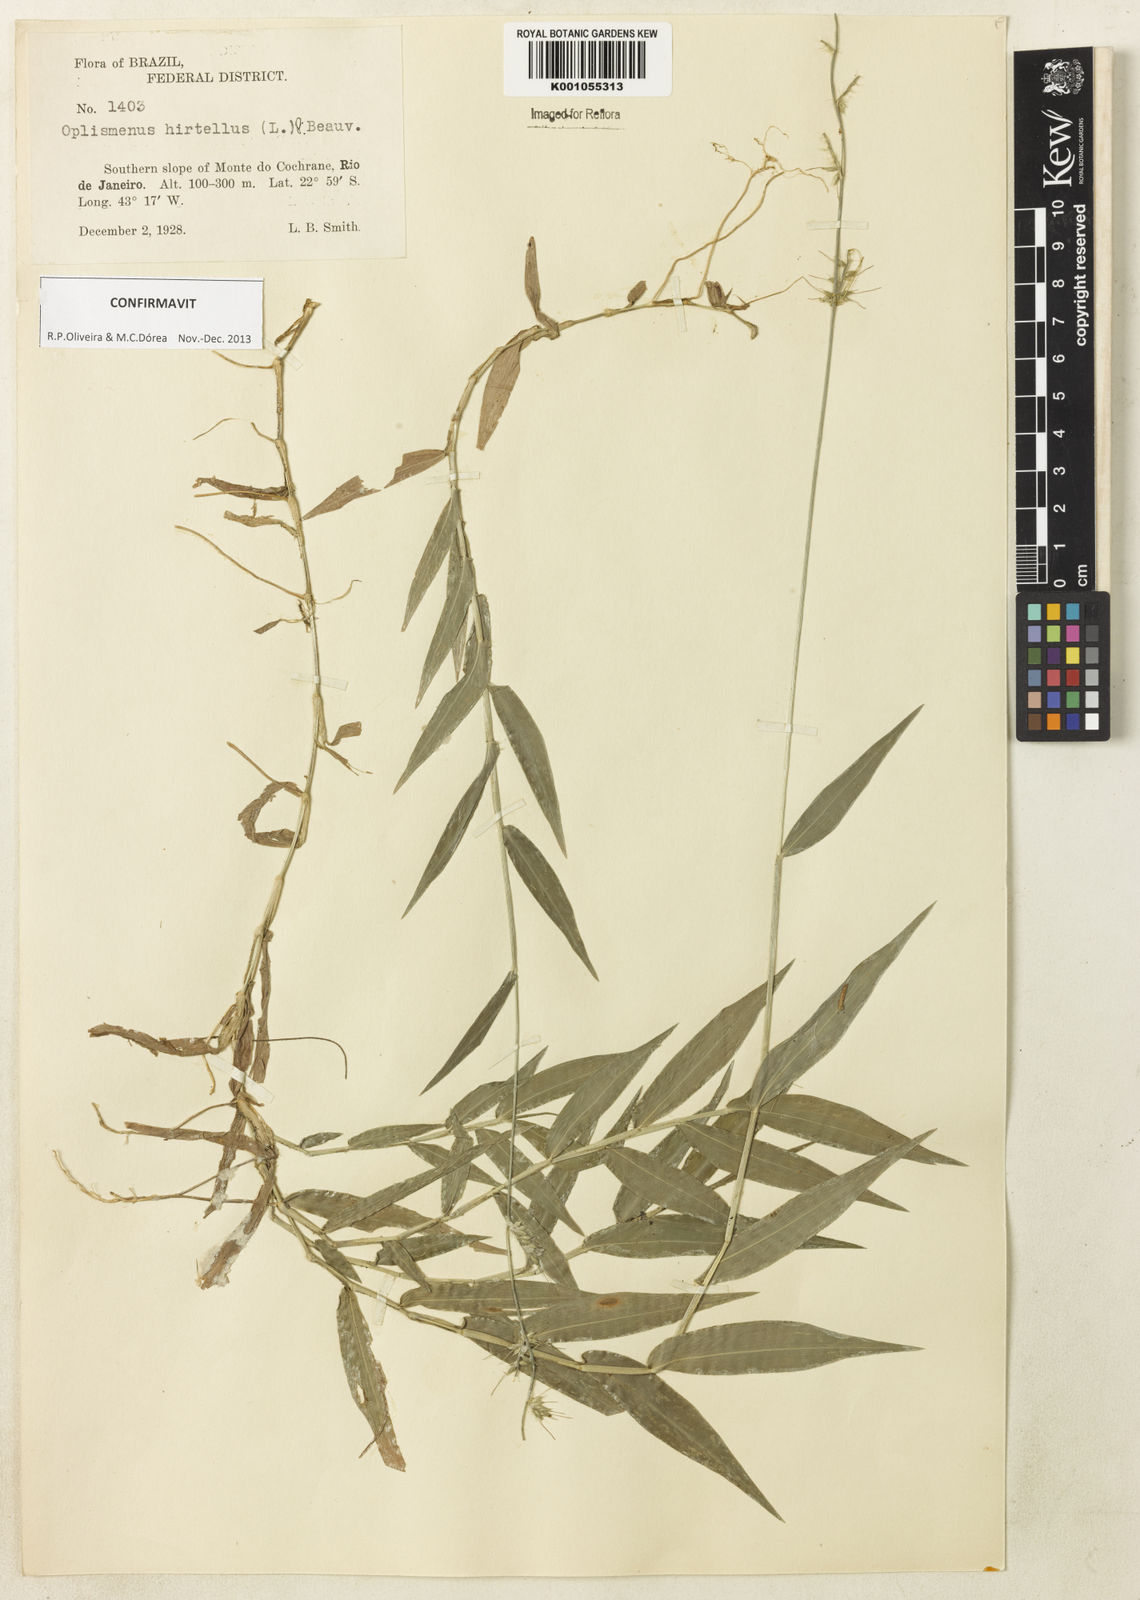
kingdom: Plantae
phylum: Tracheophyta
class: Liliopsida
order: Poales
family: Poaceae
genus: Oplismenus
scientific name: Oplismenus hirtellus
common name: Basketgrass
